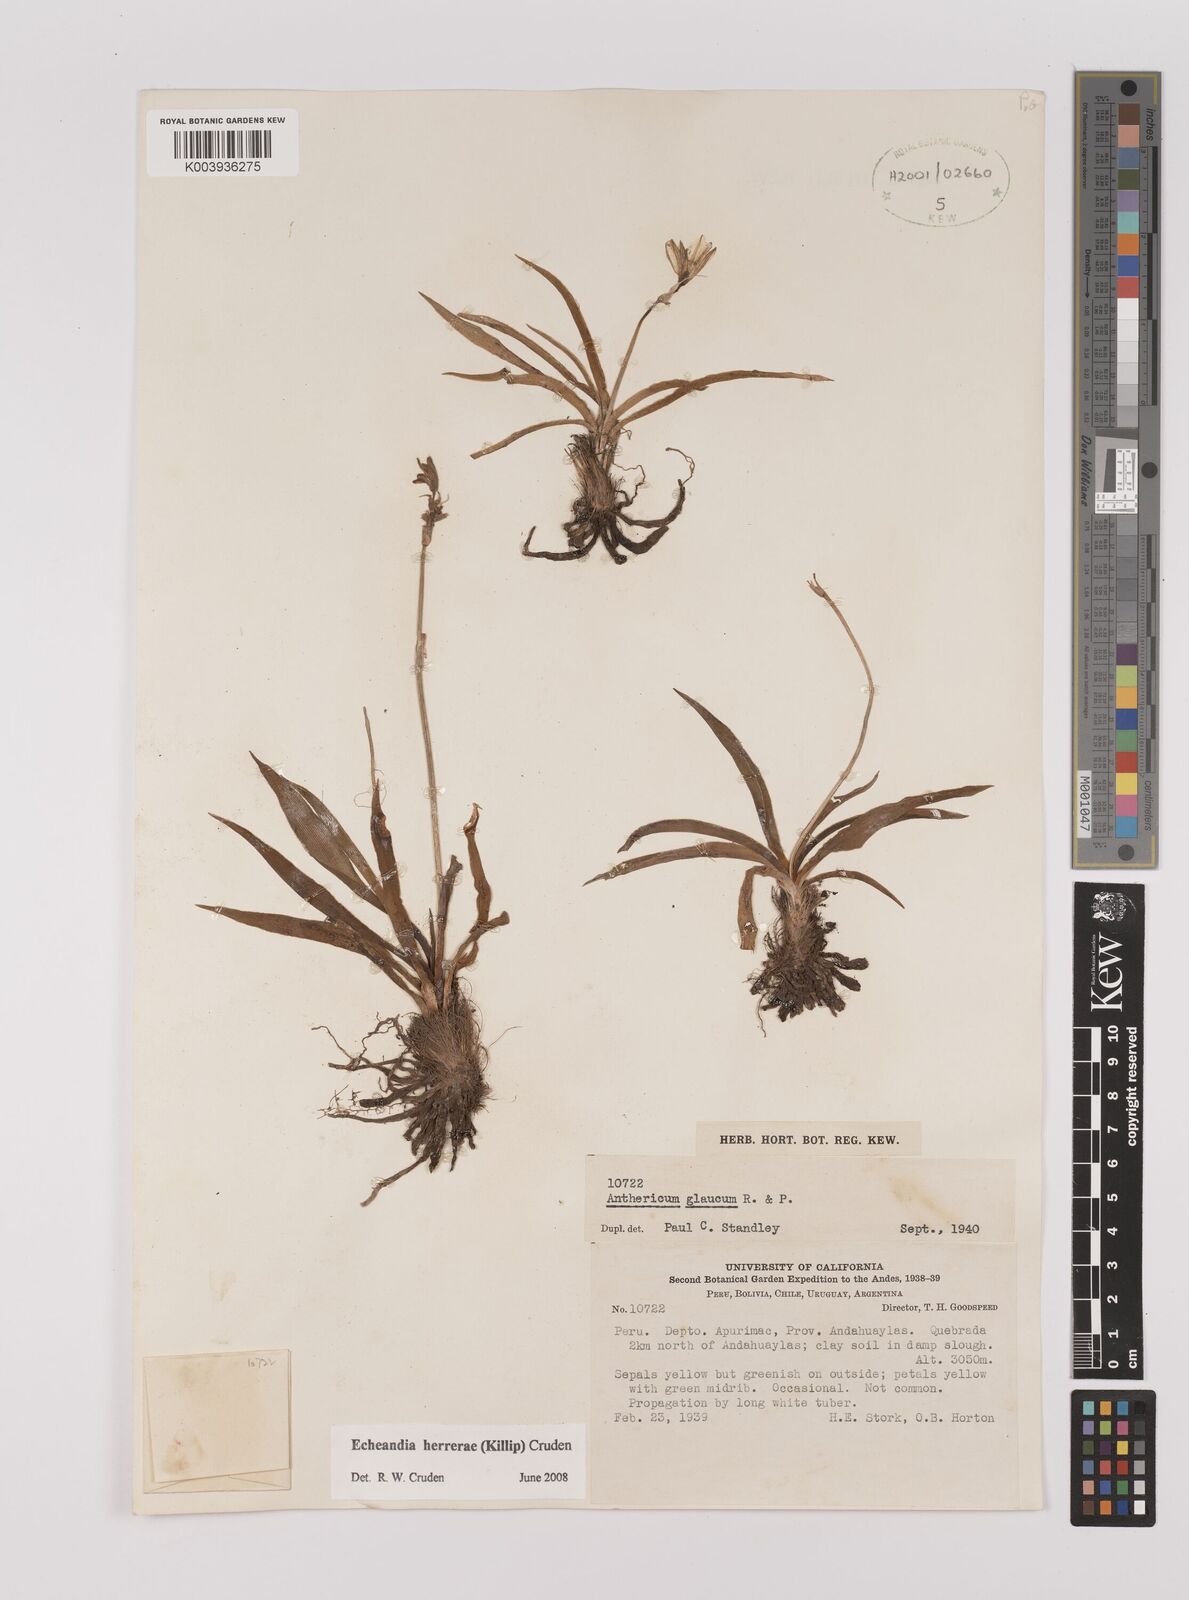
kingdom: Plantae
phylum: Tracheophyta
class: Liliopsida
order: Asparagales
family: Asparagaceae
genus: Echeandia
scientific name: Echeandia herrerae
